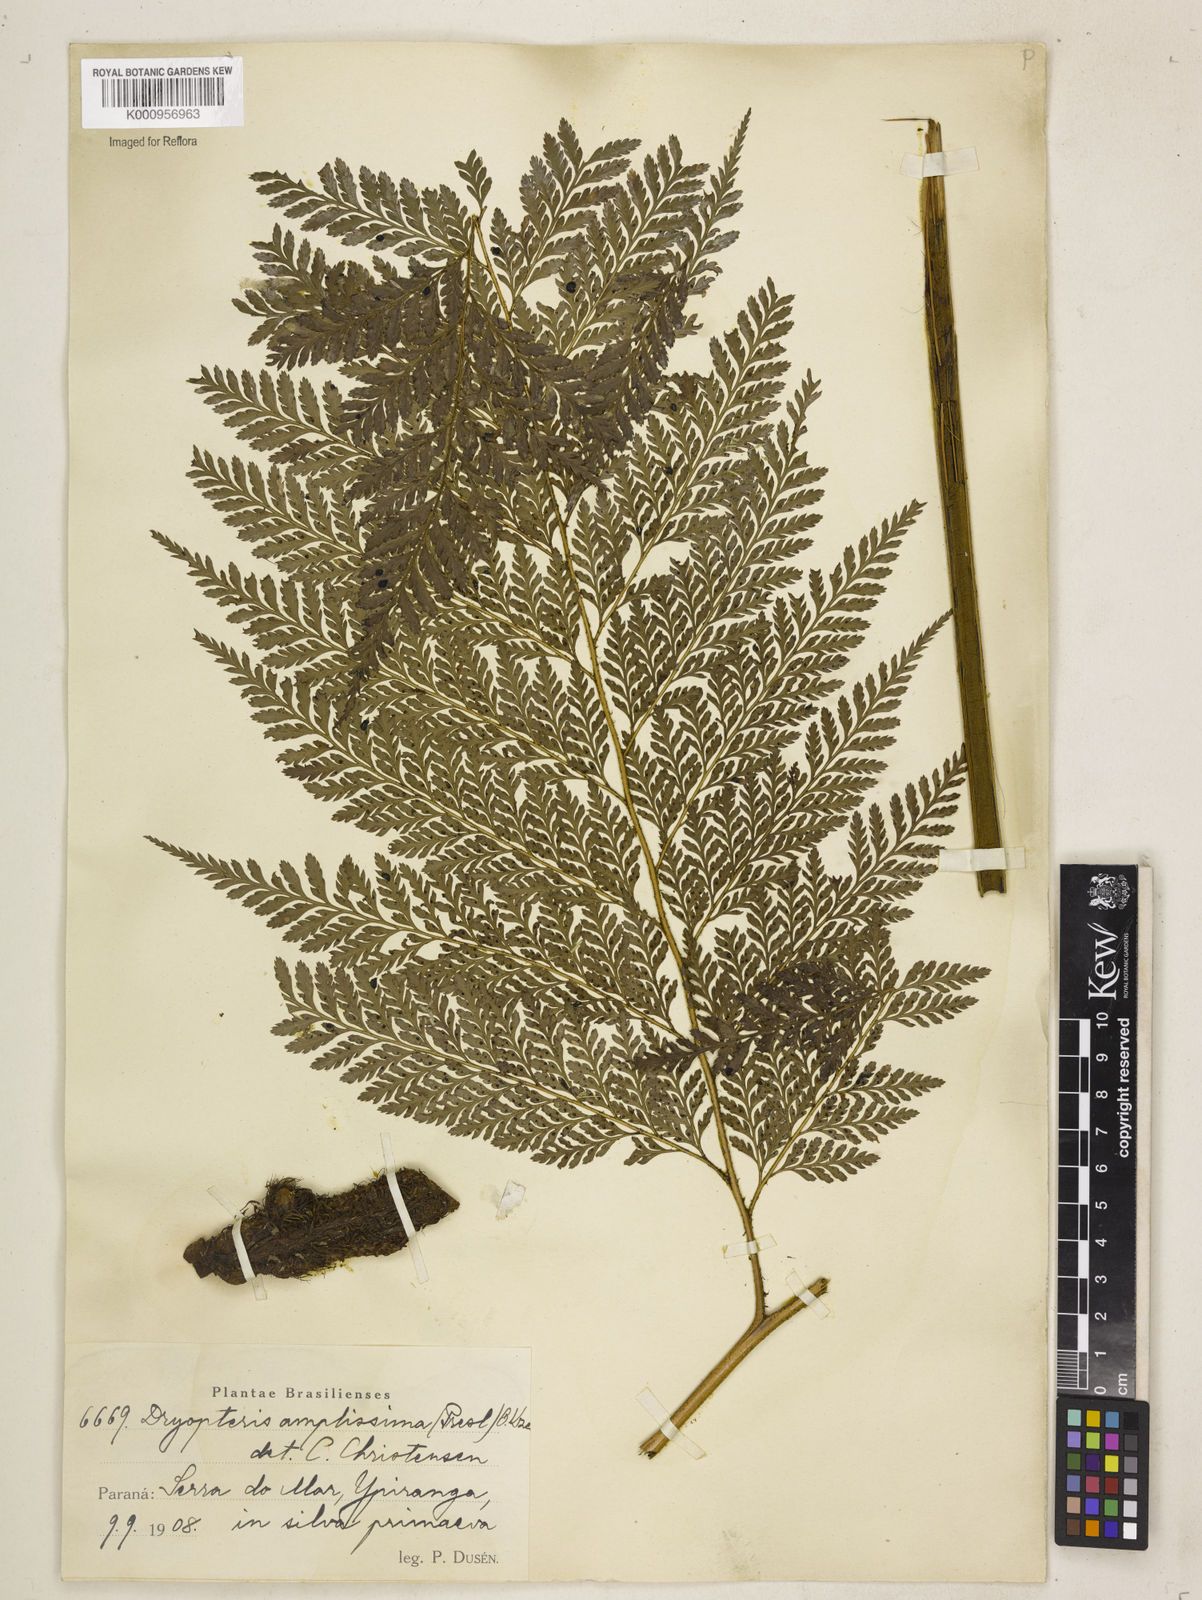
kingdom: Plantae
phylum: Tracheophyta
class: Polypodiopsida
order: Polypodiales
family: Dryopteridaceae
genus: Lastreopsis
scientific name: Lastreopsis amplissima
